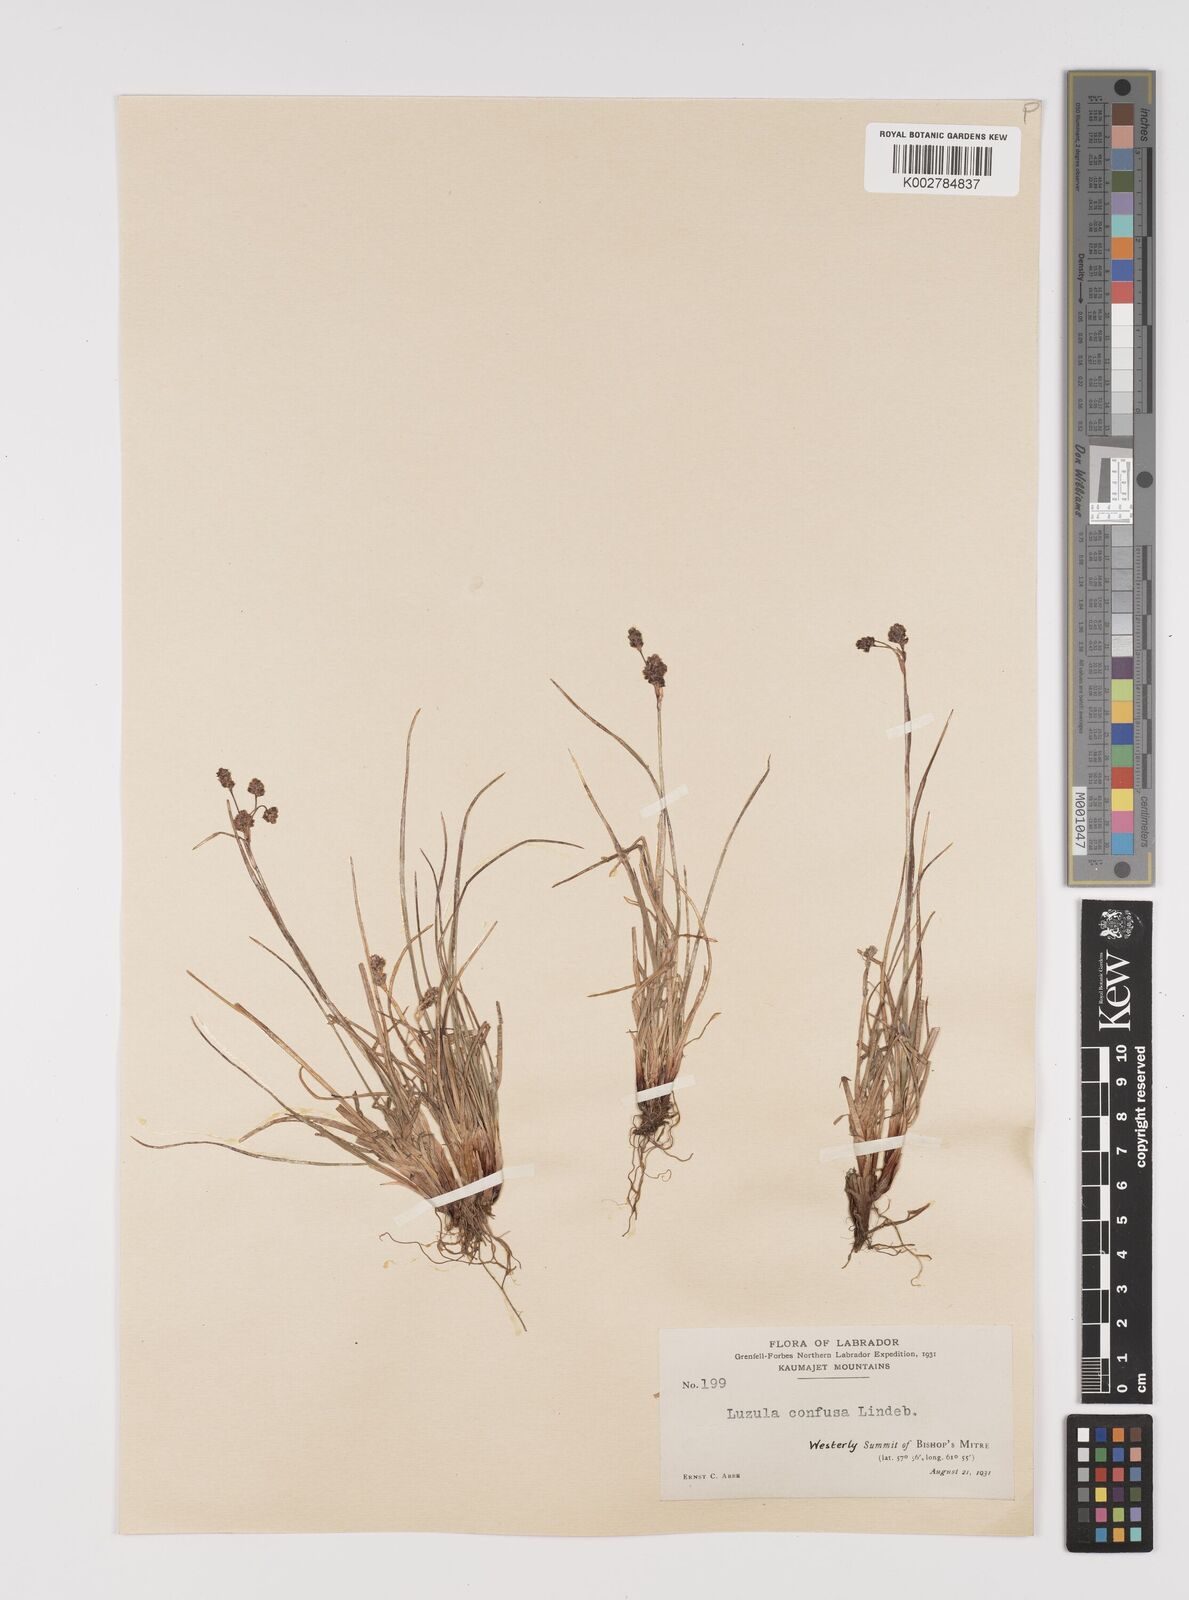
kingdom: Plantae
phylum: Tracheophyta
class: Liliopsida
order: Poales
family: Juncaceae
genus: Luzula
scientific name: Luzula confusa
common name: Northern wood rush
